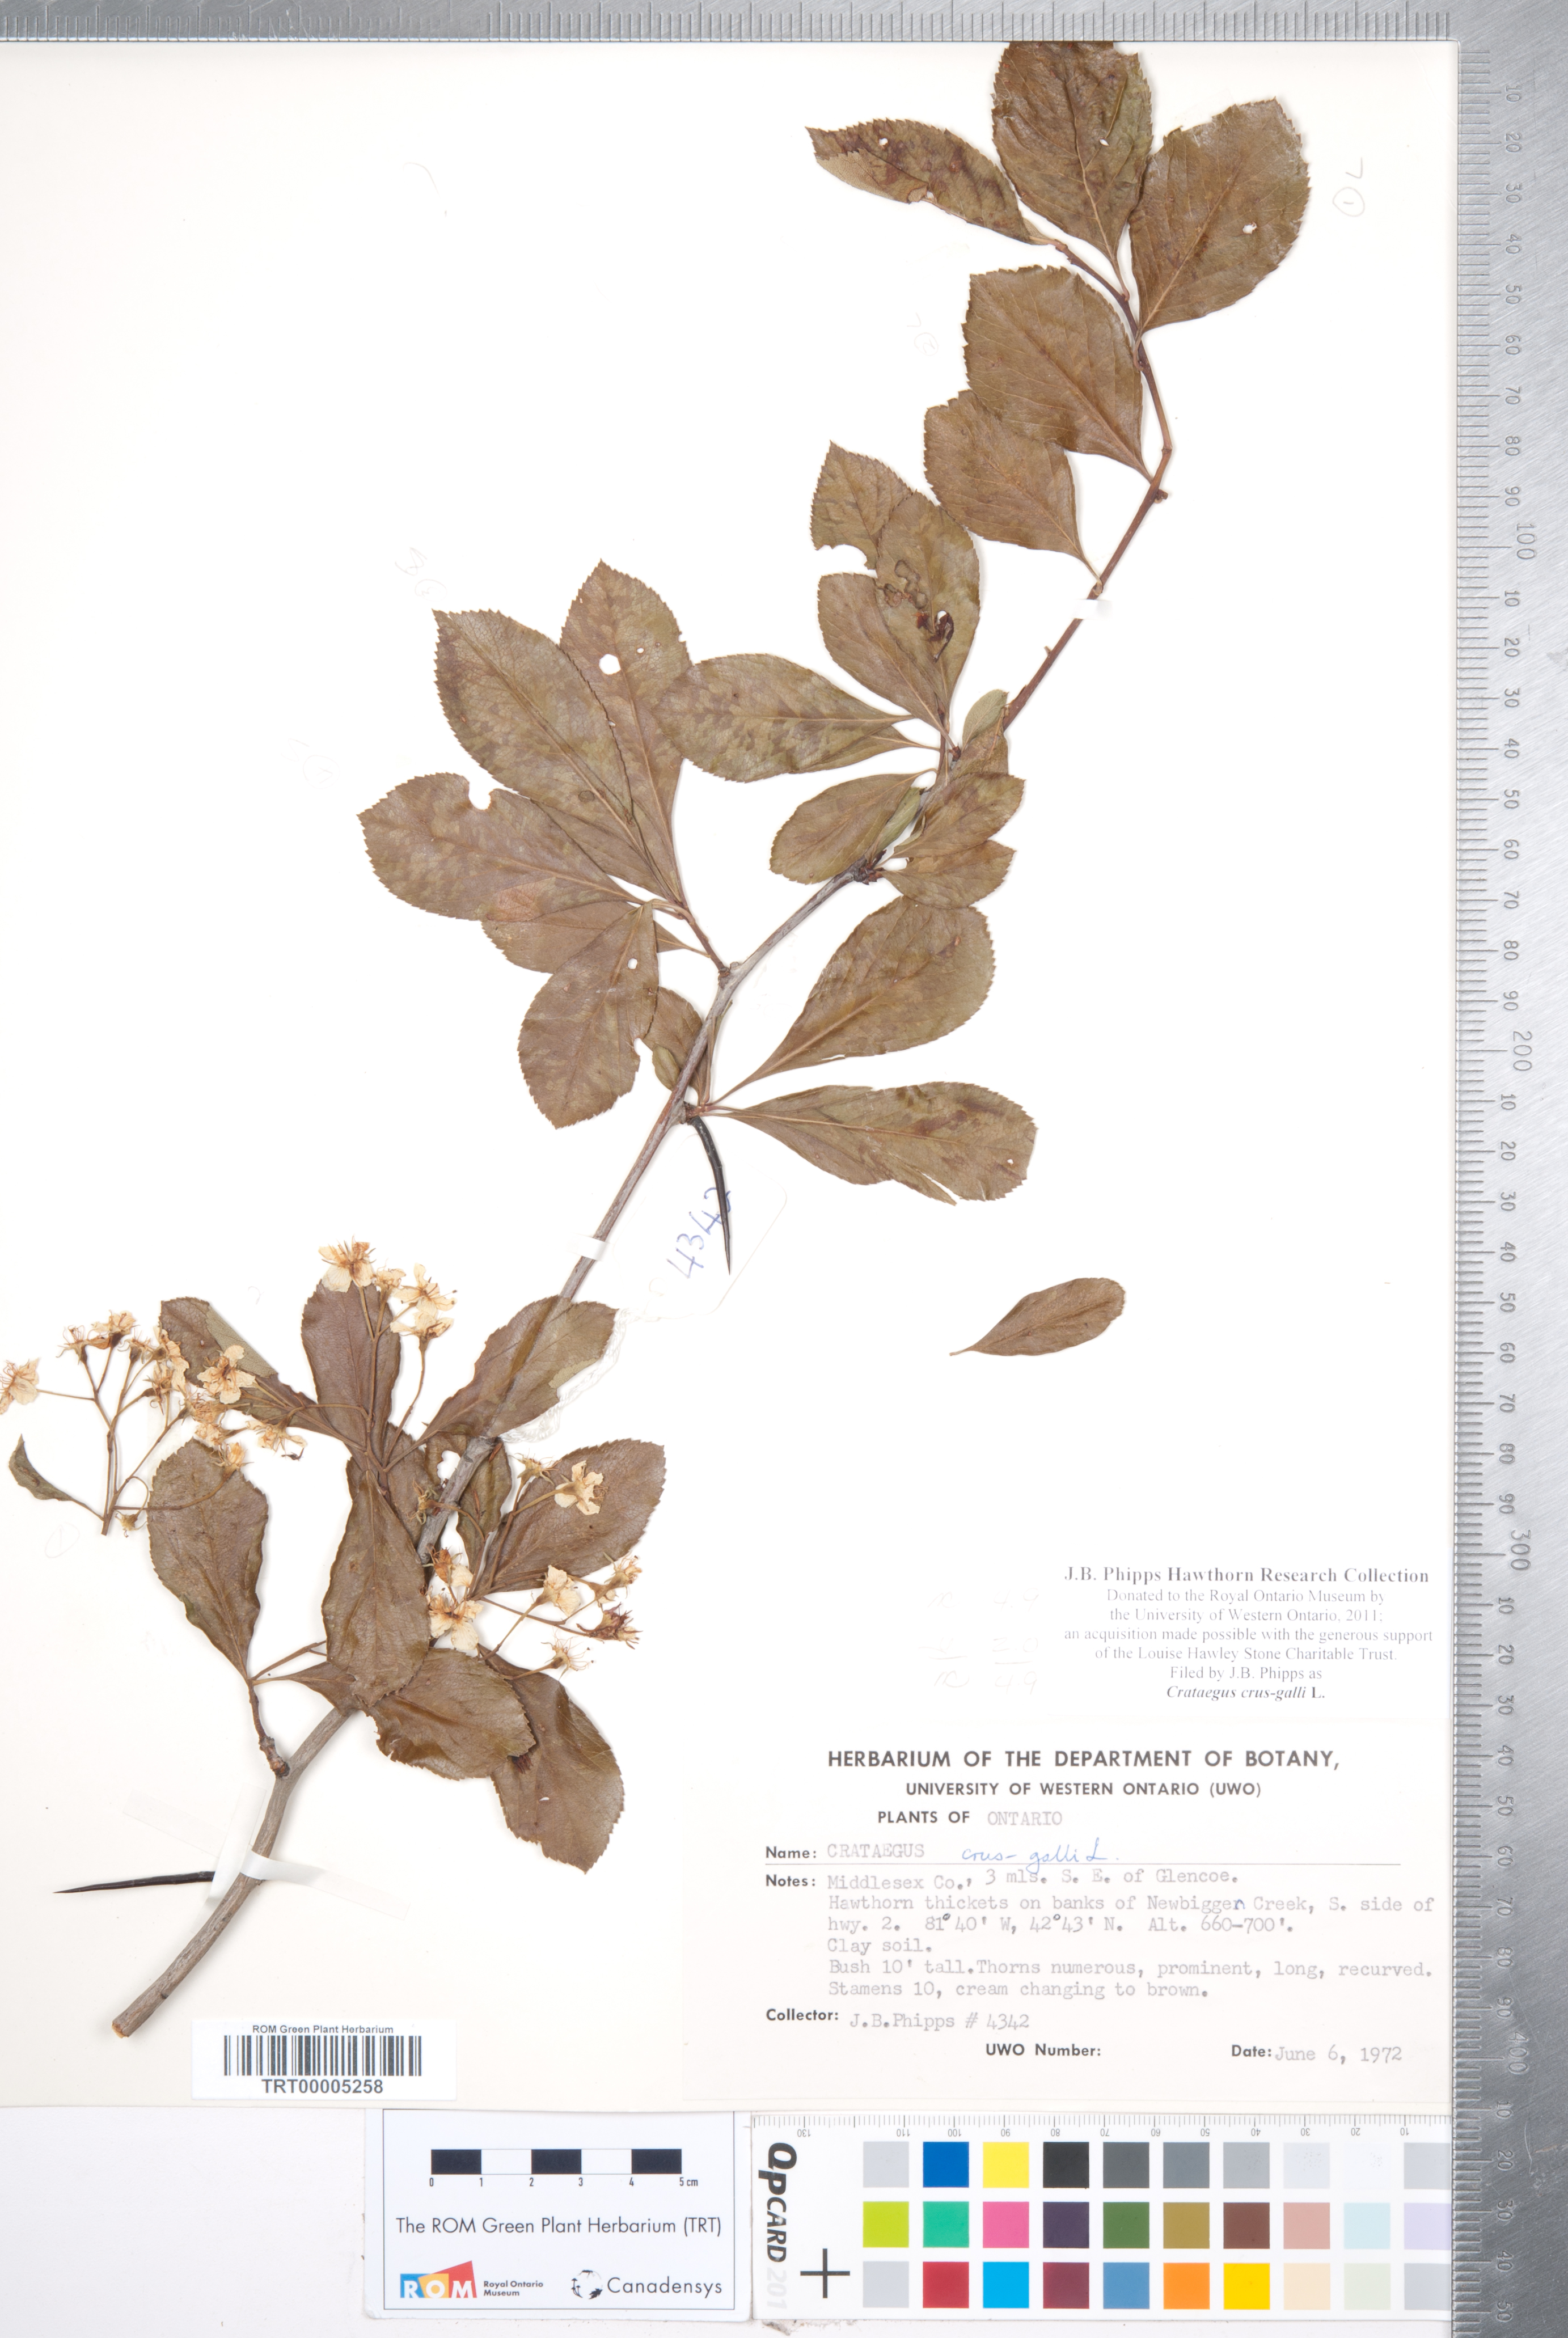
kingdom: Plantae
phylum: Tracheophyta
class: Magnoliopsida
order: Rosales
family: Rosaceae
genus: Crataegus
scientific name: Crataegus crus-galli
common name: Cockspurthorn
